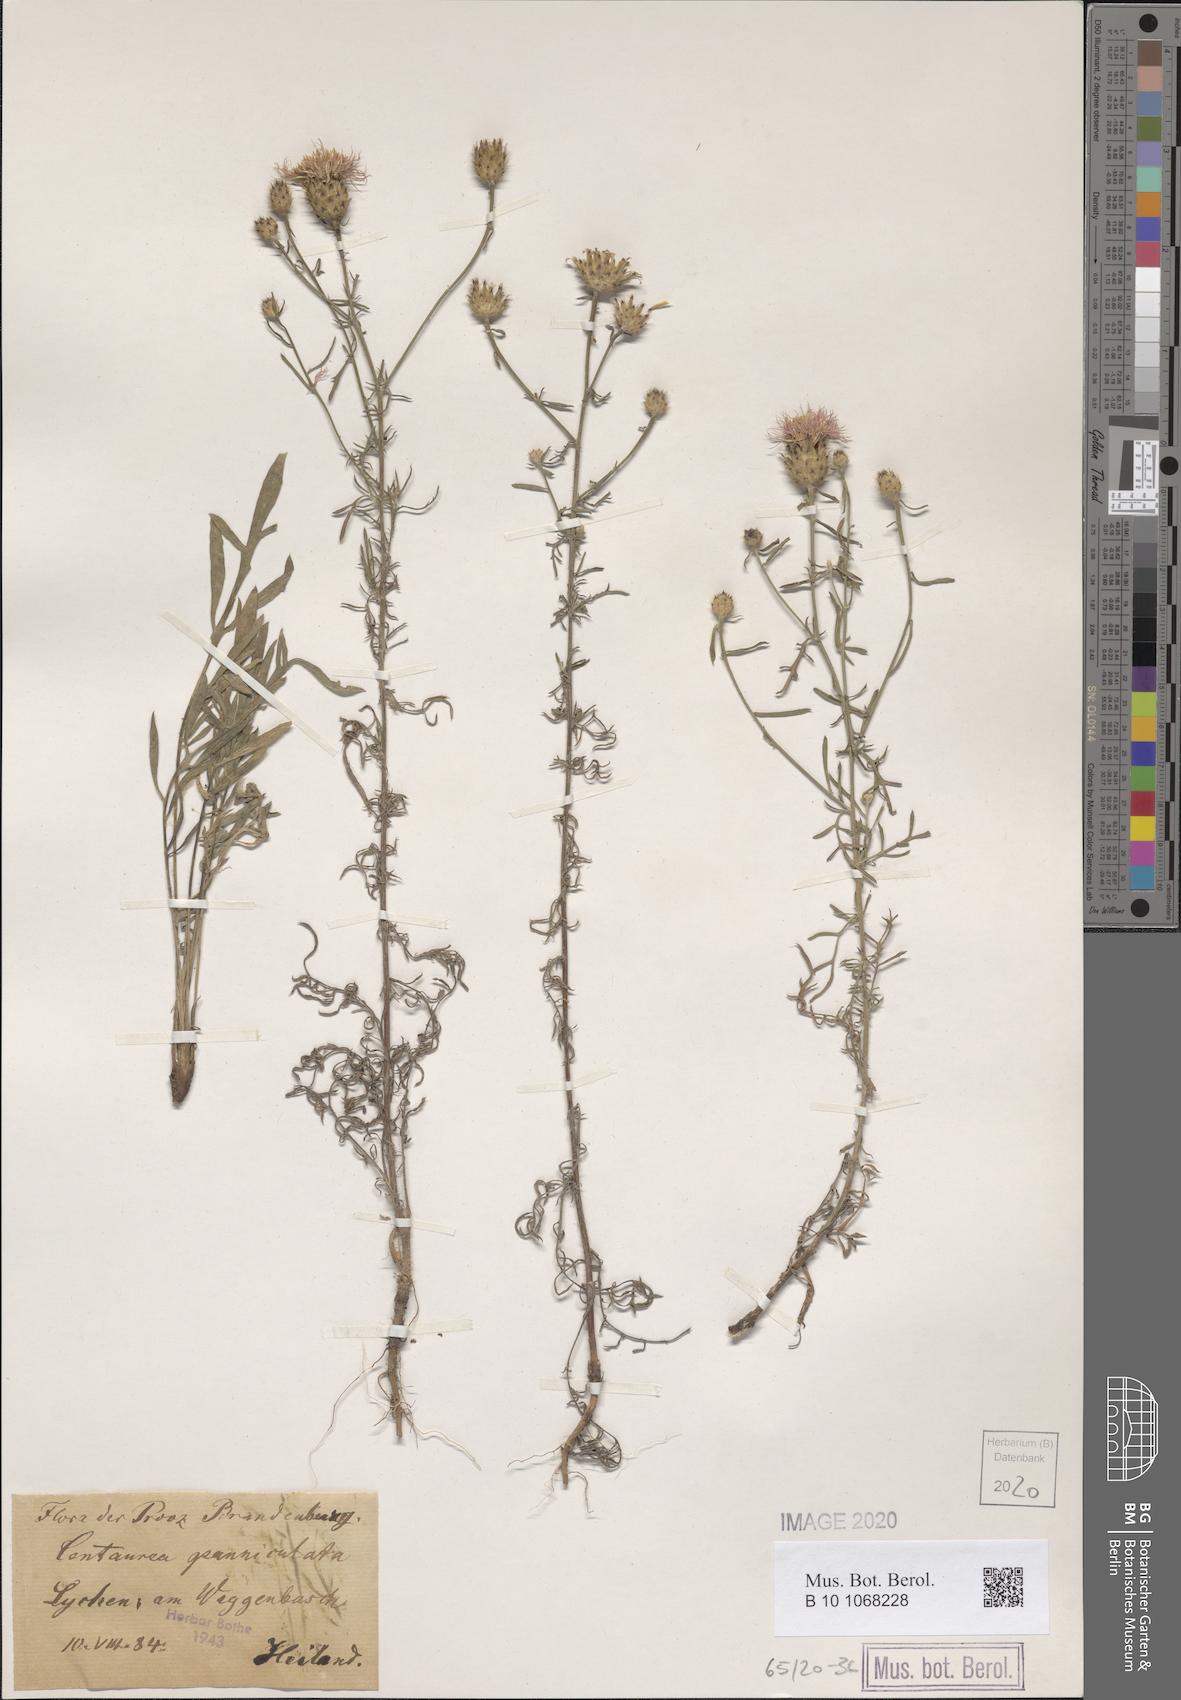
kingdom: Plantae
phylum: Tracheophyta
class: Magnoliopsida
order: Asterales
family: Asteraceae
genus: Centaurea
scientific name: Centaurea stoebe
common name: Spotted knapweed
